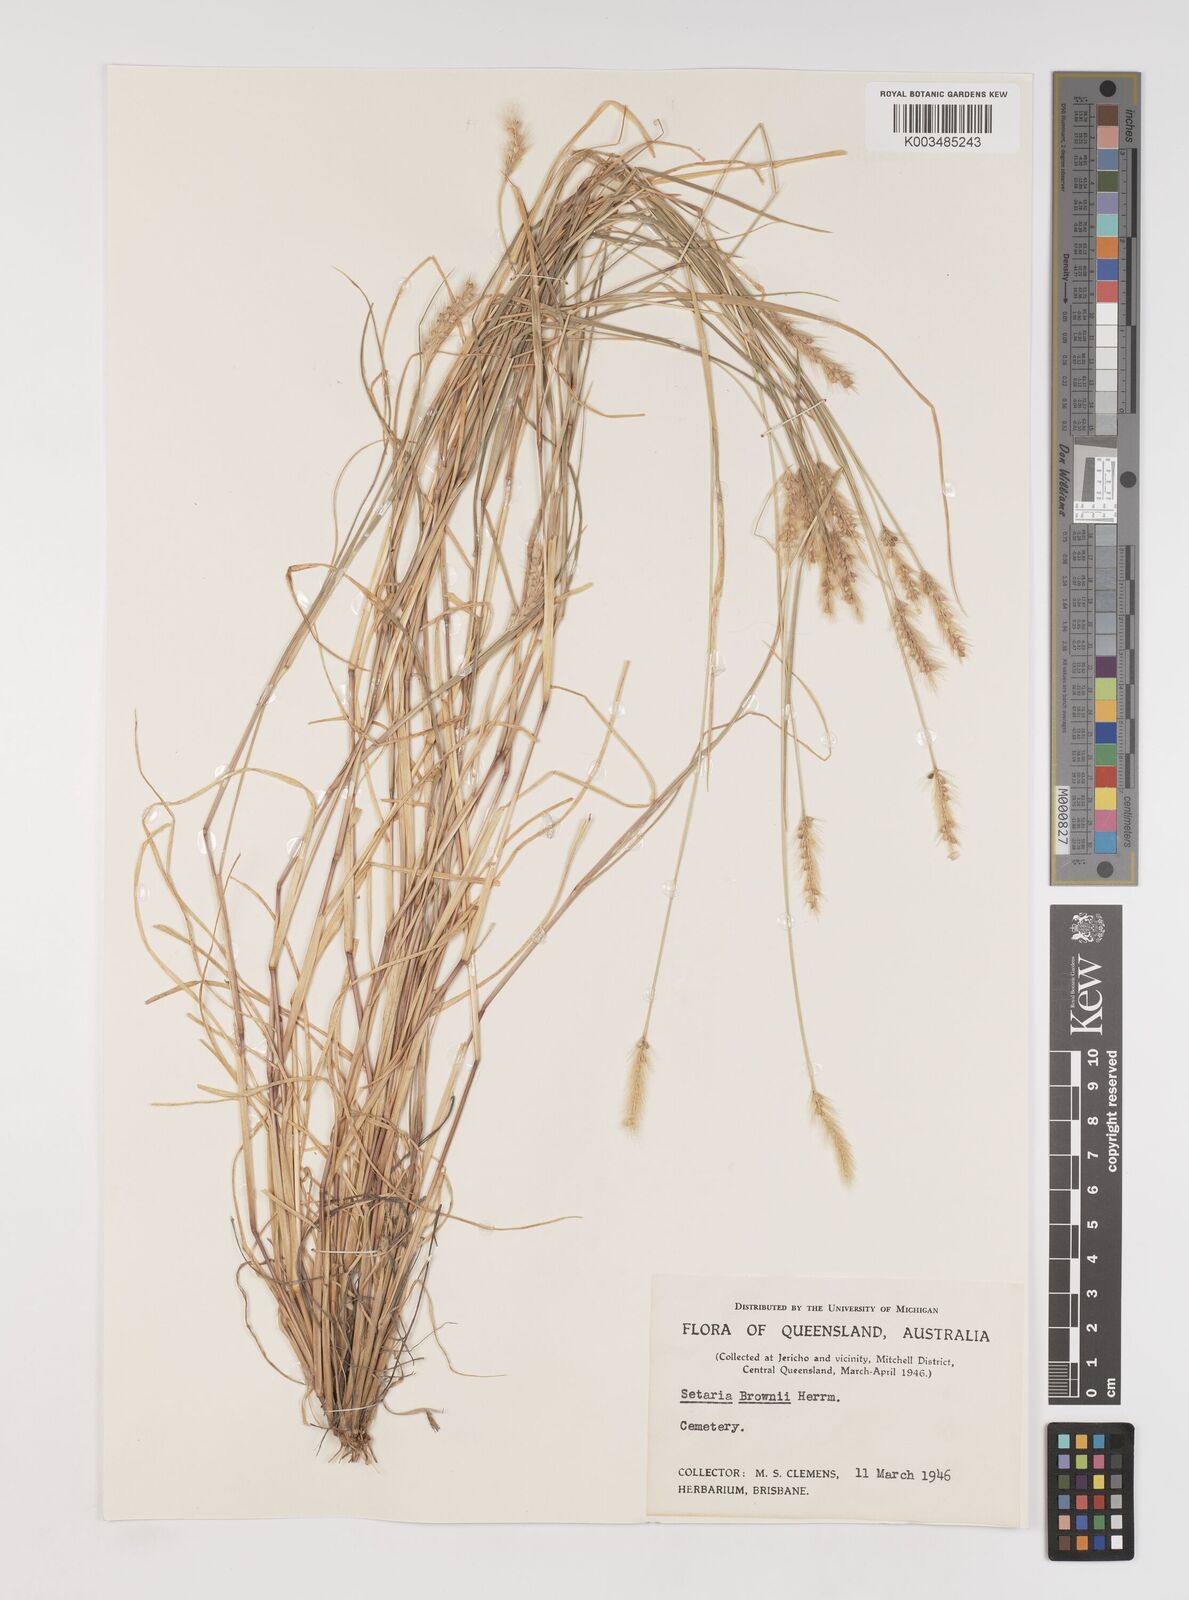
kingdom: Plantae
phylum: Tracheophyta
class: Liliopsida
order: Poales
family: Poaceae
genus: Setaria
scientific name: Setaria surgens
